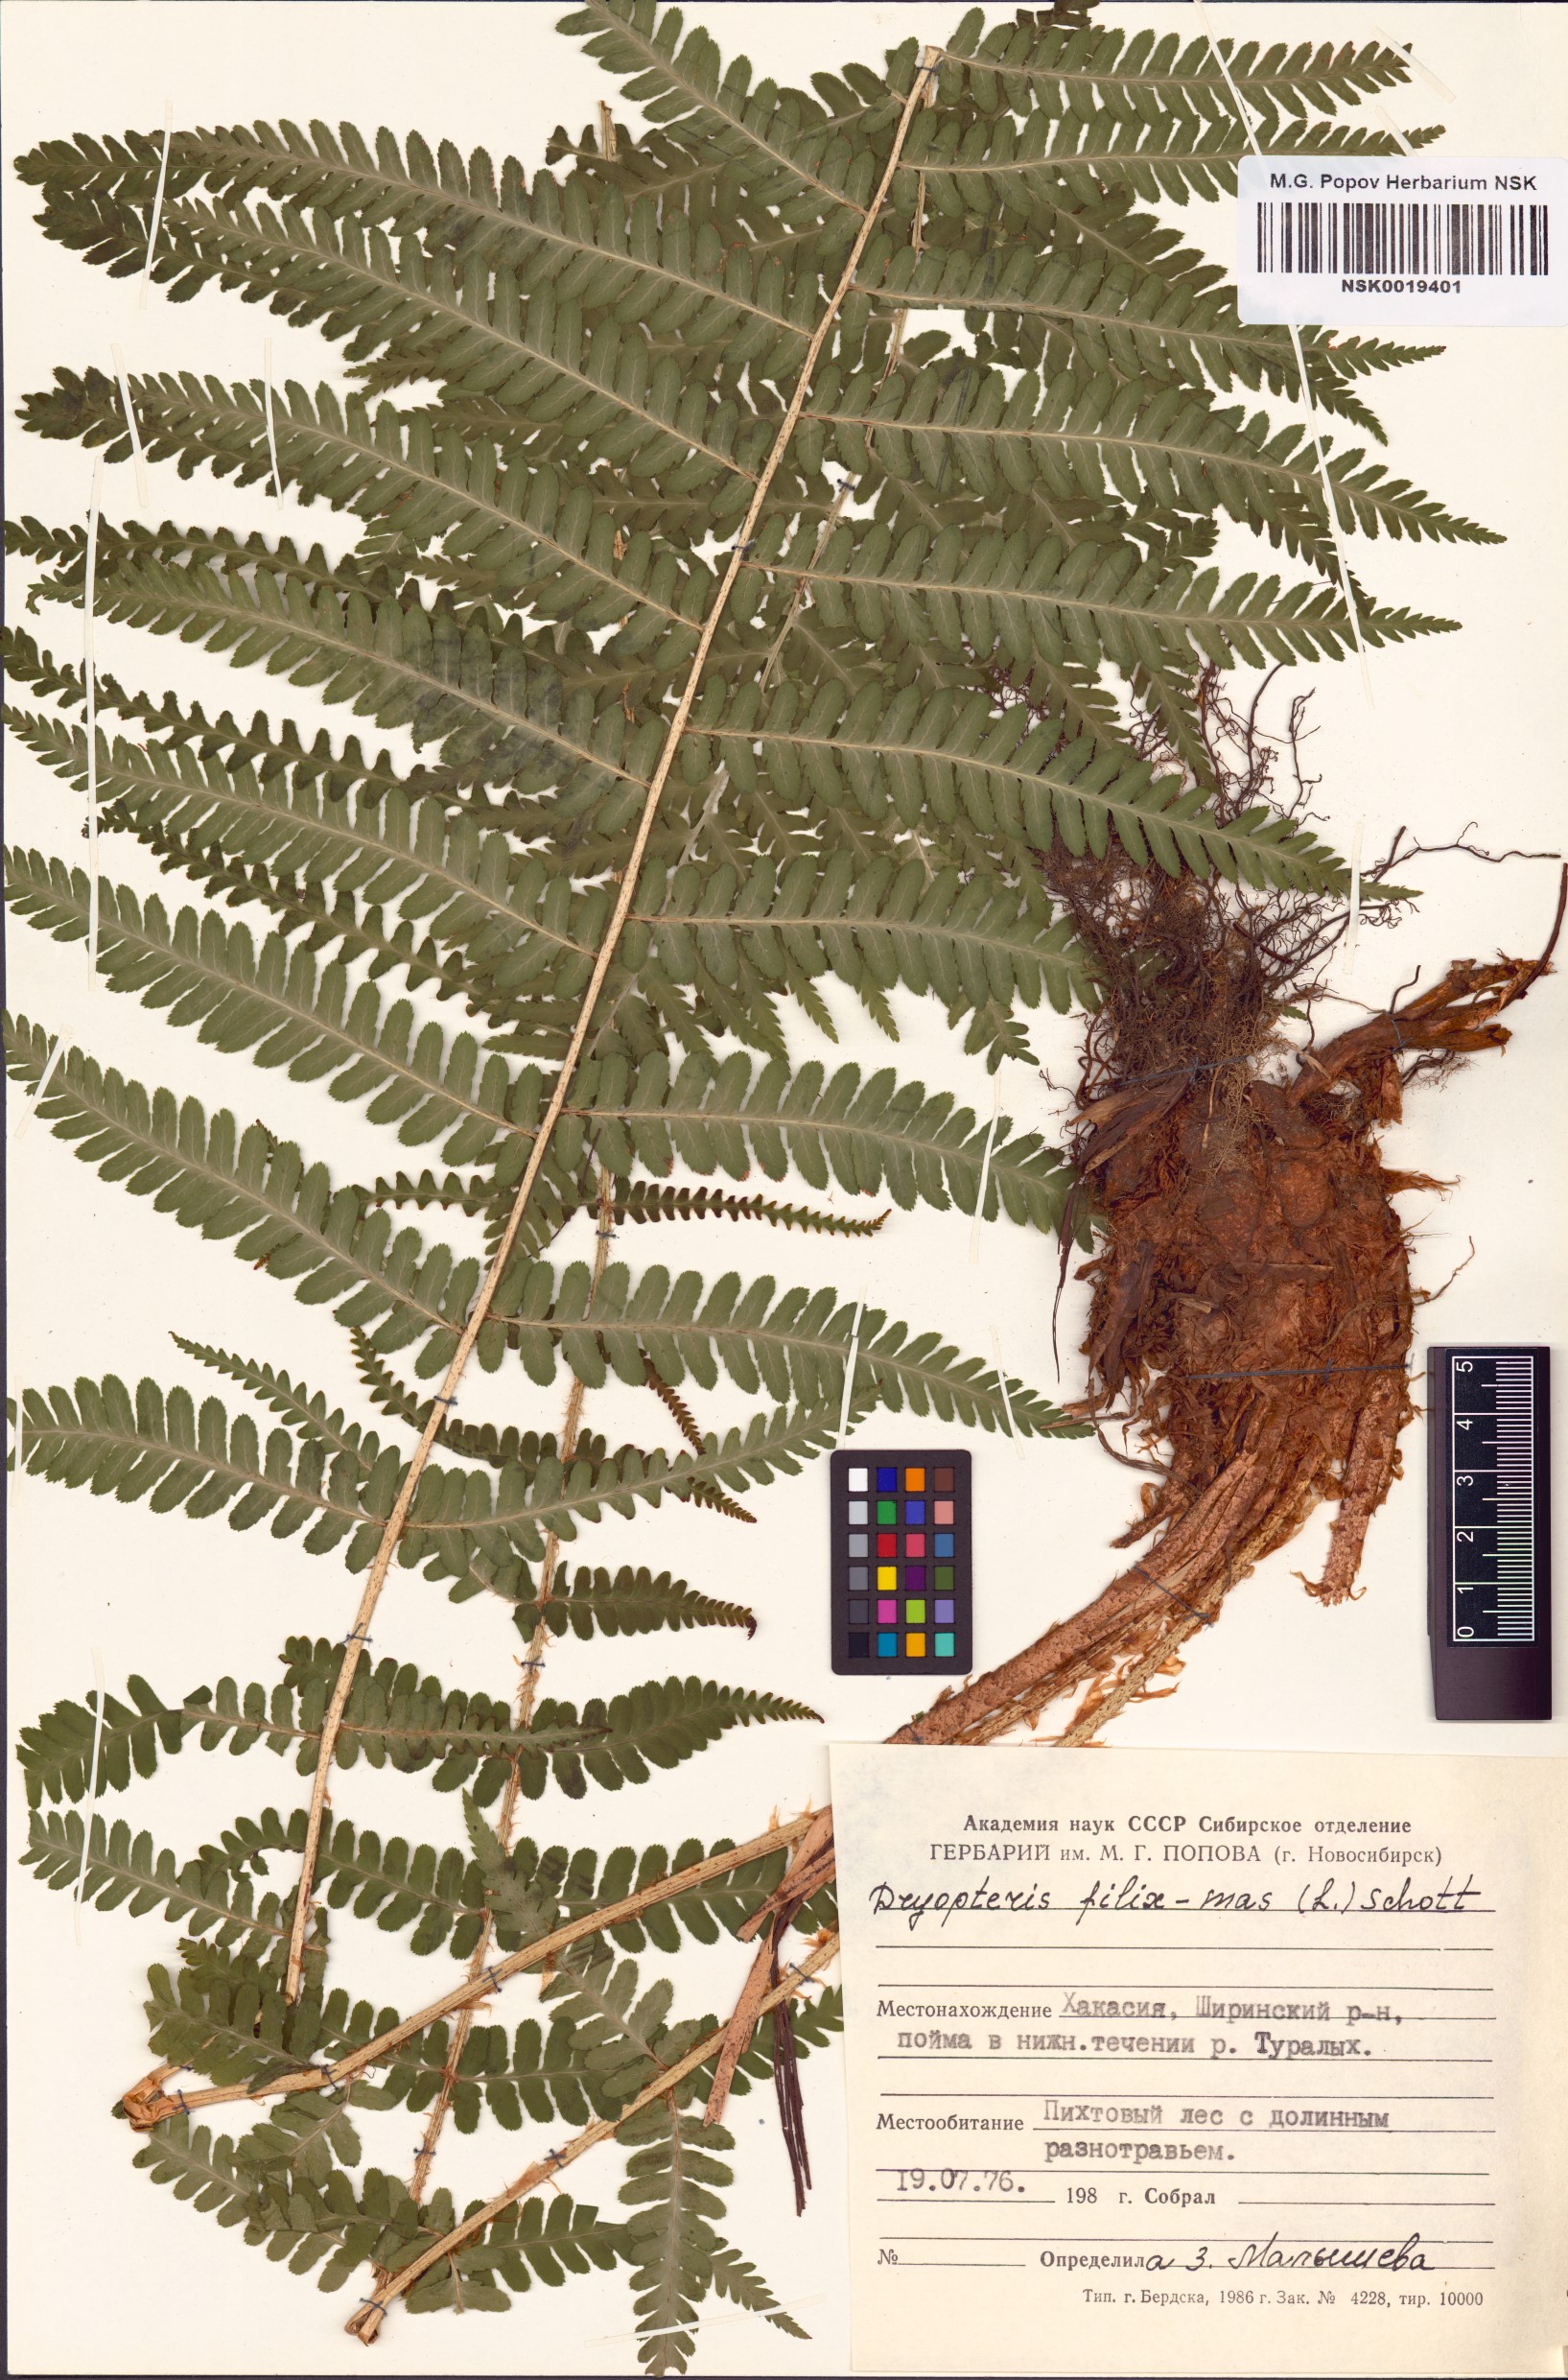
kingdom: Plantae
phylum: Tracheophyta
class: Polypodiopsida
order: Polypodiales
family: Dryopteridaceae
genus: Dryopteris
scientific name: Dryopteris filix-mas
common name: Male fern
